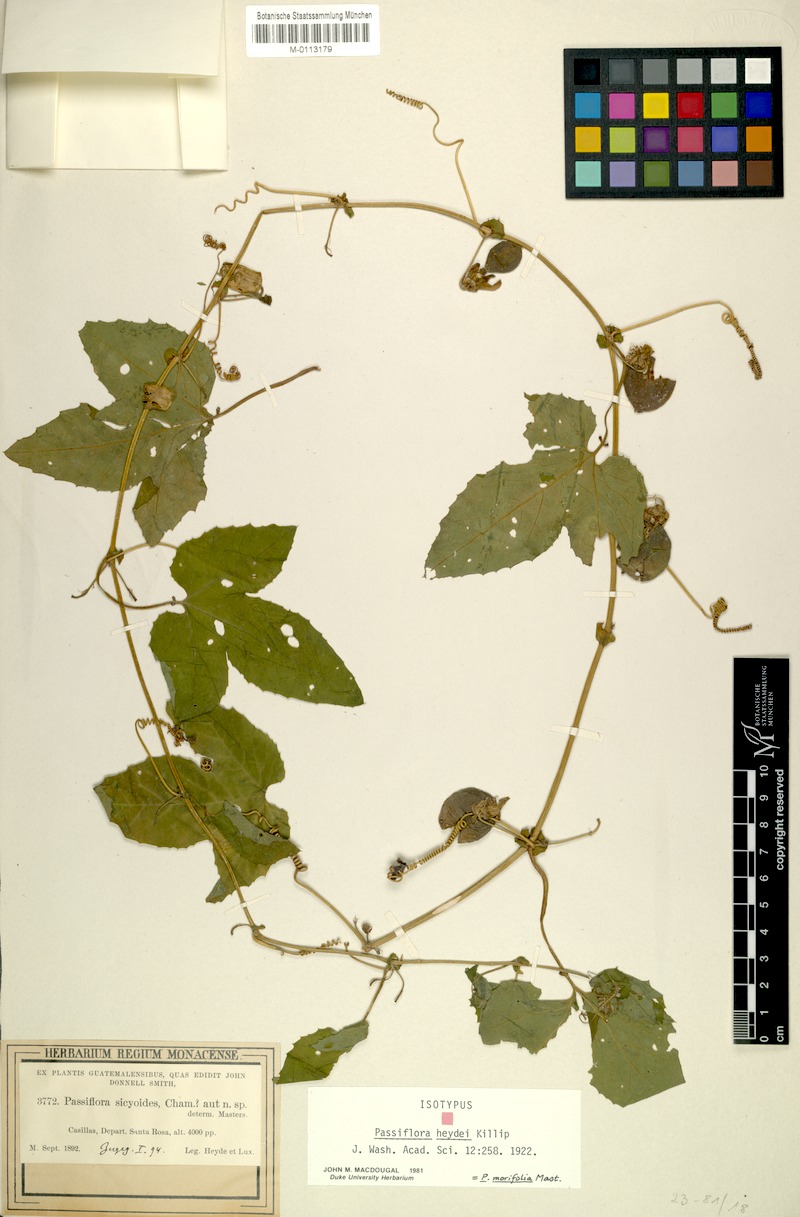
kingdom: Plantae
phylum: Tracheophyta
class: Magnoliopsida
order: Malpighiales
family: Passifloraceae
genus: Passiflora
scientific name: Passiflora morifolia
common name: Woodland passionflower
